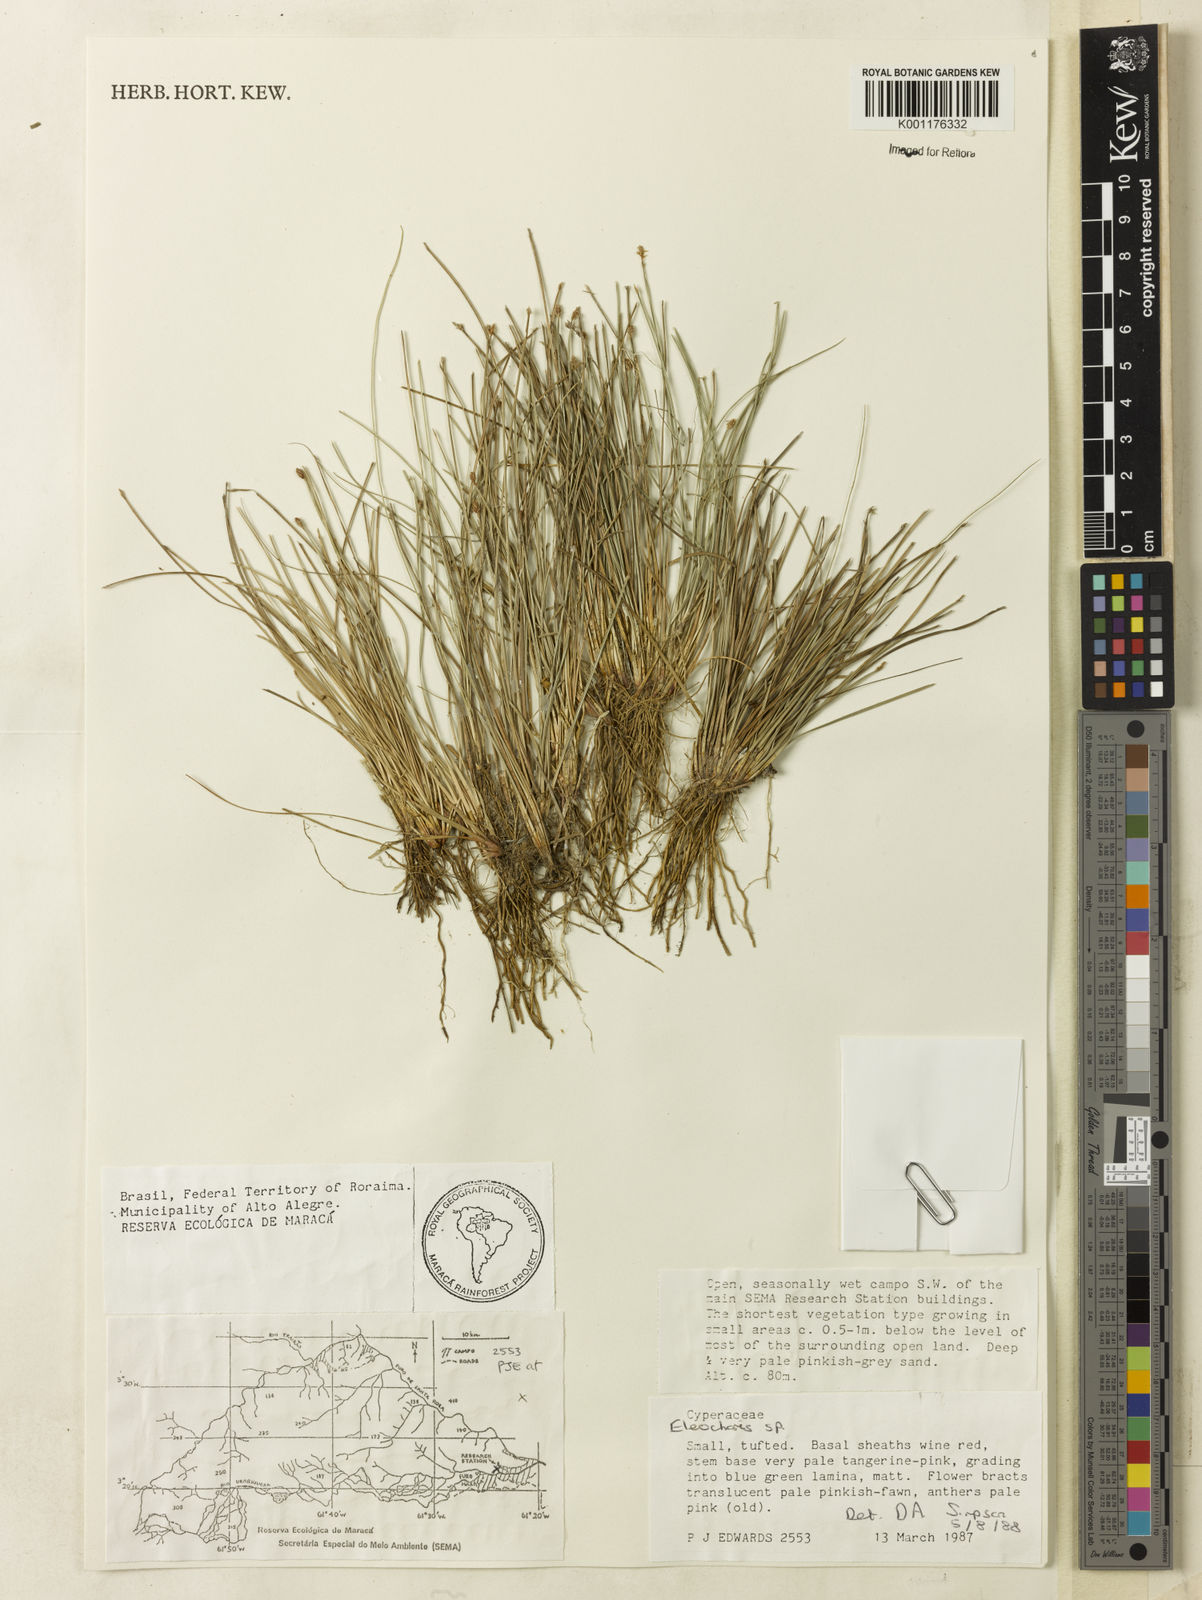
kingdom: Plantae
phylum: Tracheophyta
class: Liliopsida
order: Poales
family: Cyperaceae
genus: Eleocharis
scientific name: Eleocharis
